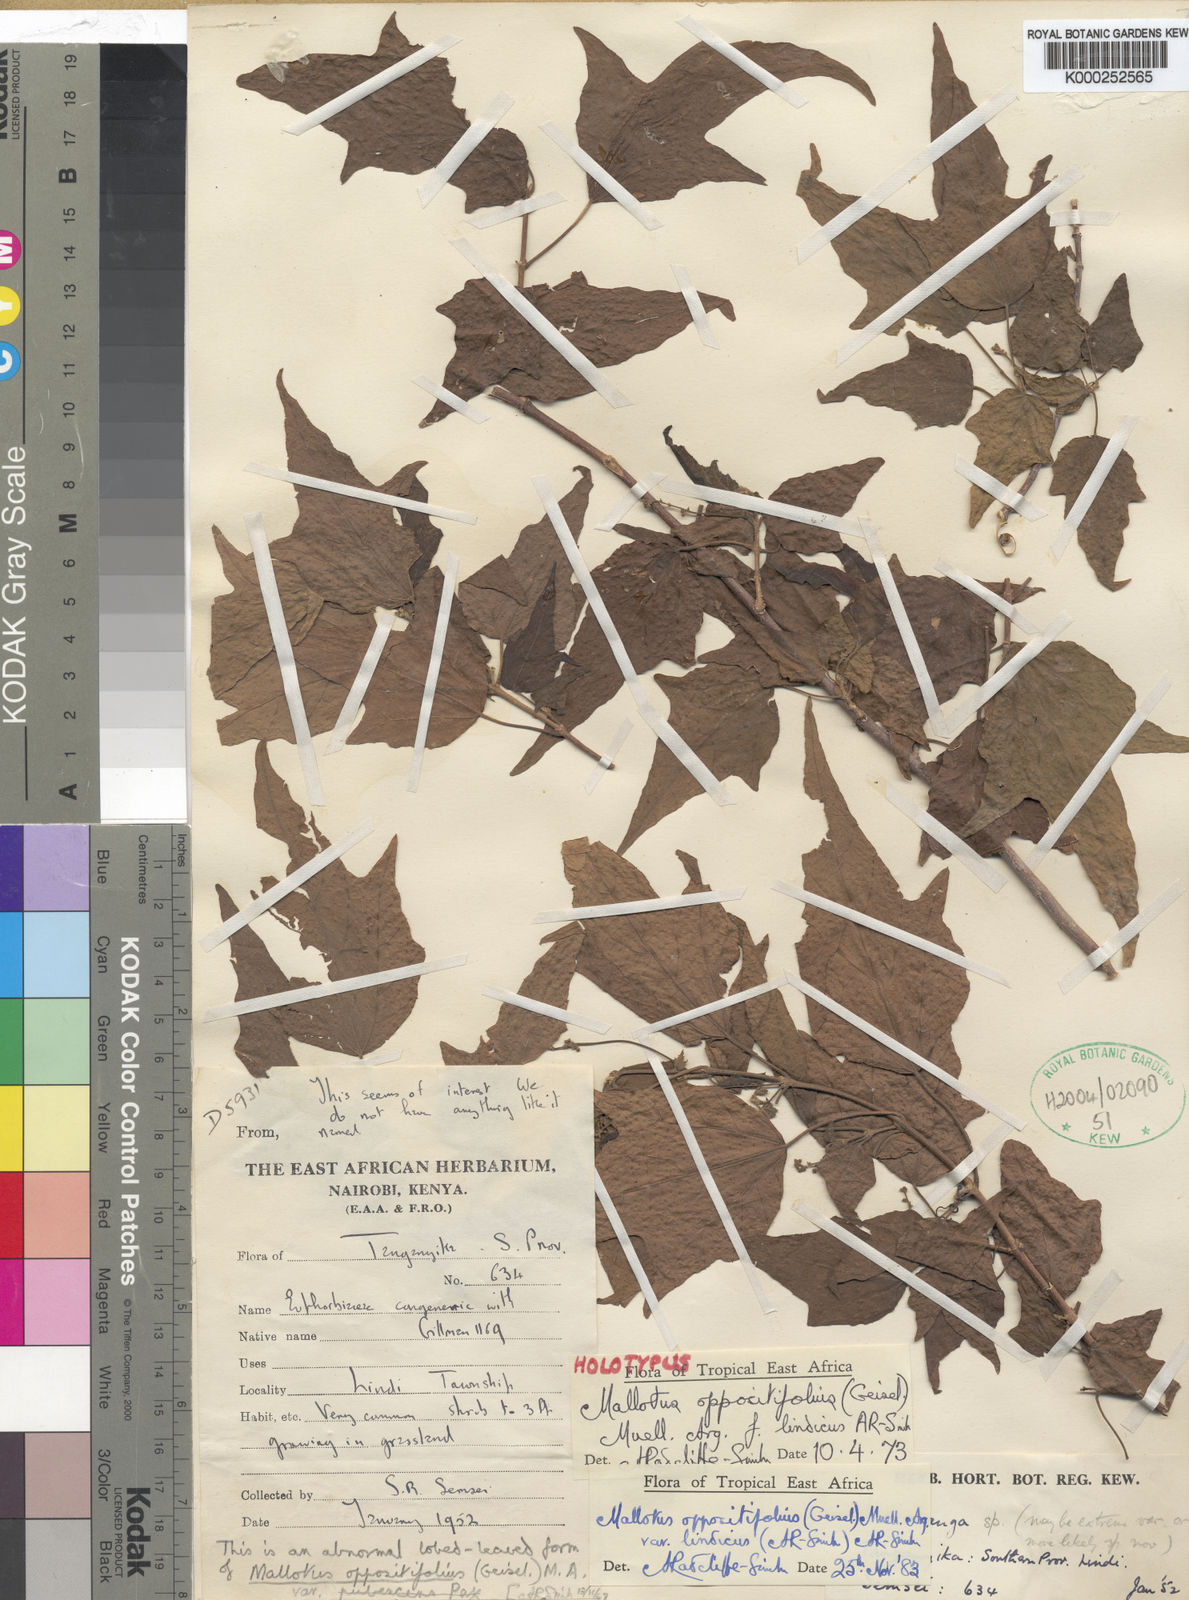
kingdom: Plantae
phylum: Tracheophyta
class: Magnoliopsida
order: Malpighiales
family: Euphorbiaceae
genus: Mallotus
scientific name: Mallotus
